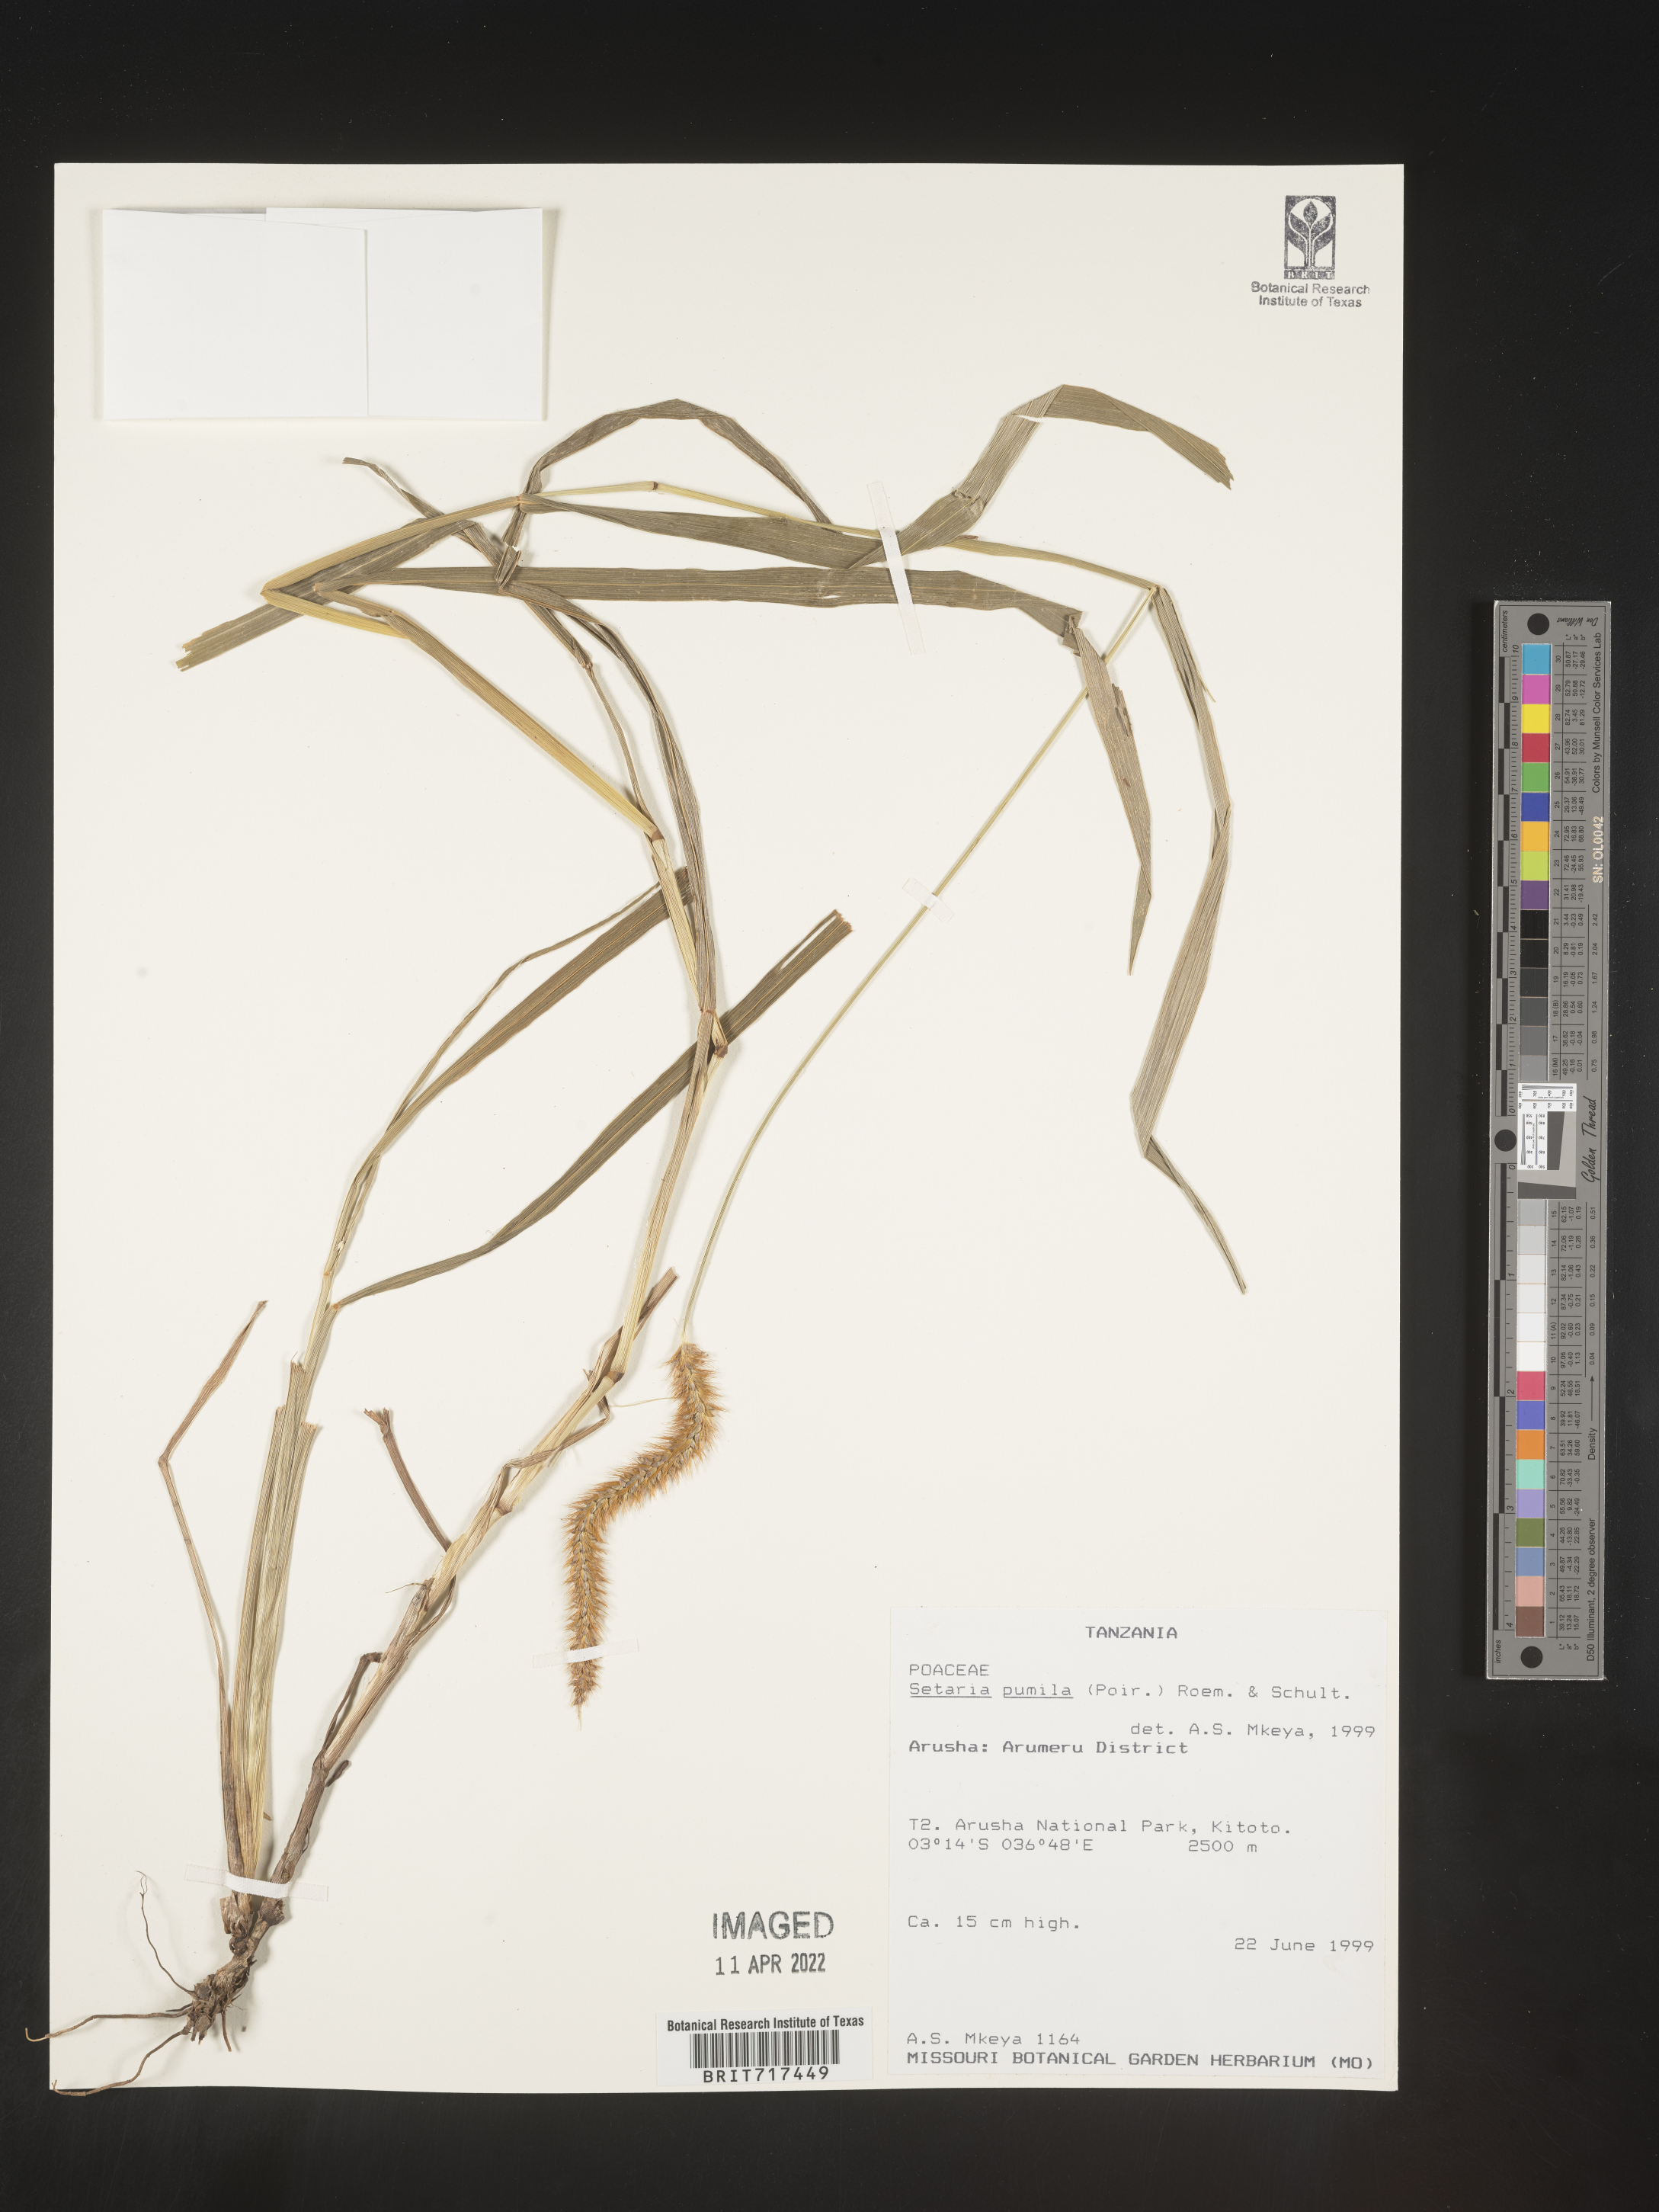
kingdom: Plantae
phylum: Tracheophyta
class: Liliopsida
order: Poales
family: Poaceae
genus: Setaria
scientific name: Setaria
